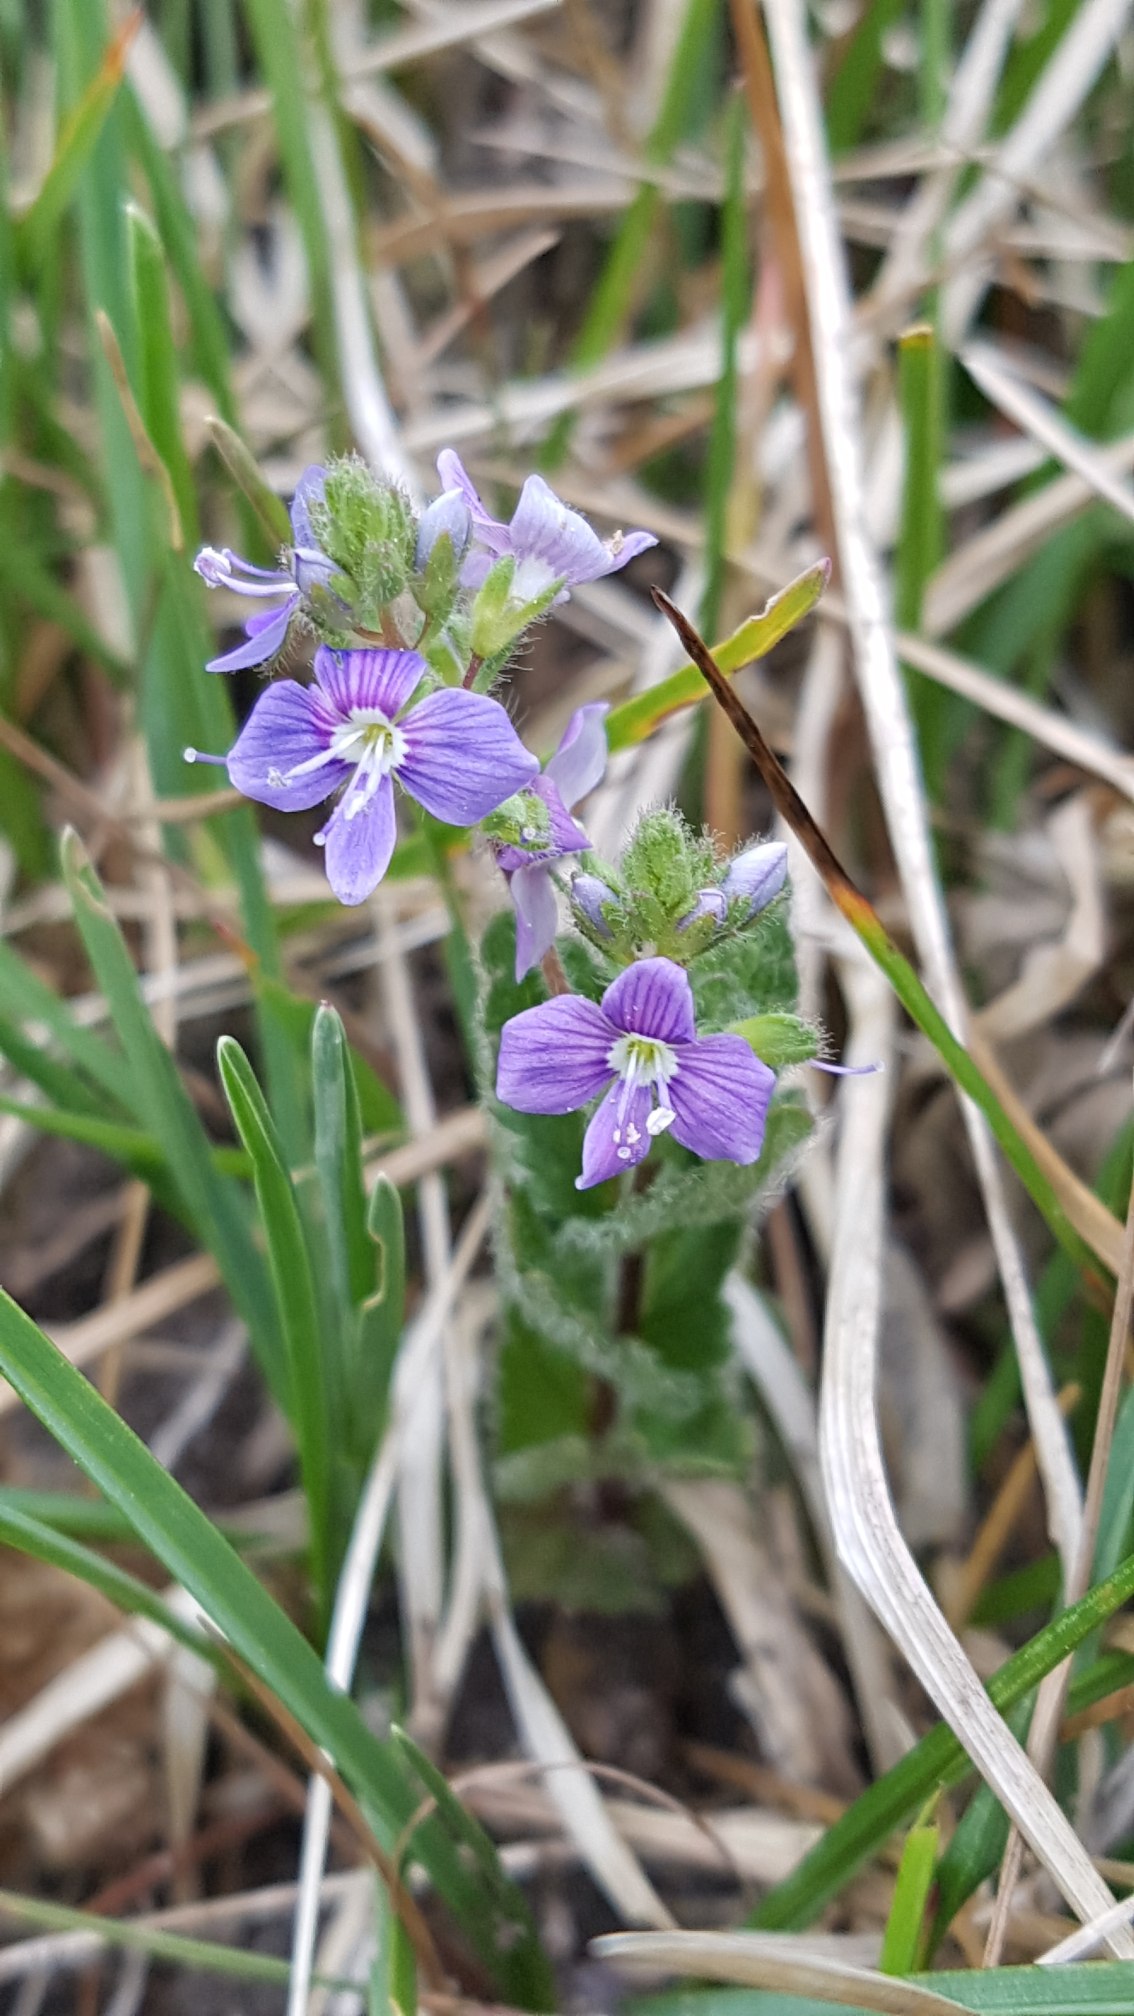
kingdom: Plantae
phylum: Tracheophyta
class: Magnoliopsida
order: Lamiales
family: Plantaginaceae
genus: Veronica
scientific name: Veronica chamaedrys
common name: Tveskægget ærenpris
